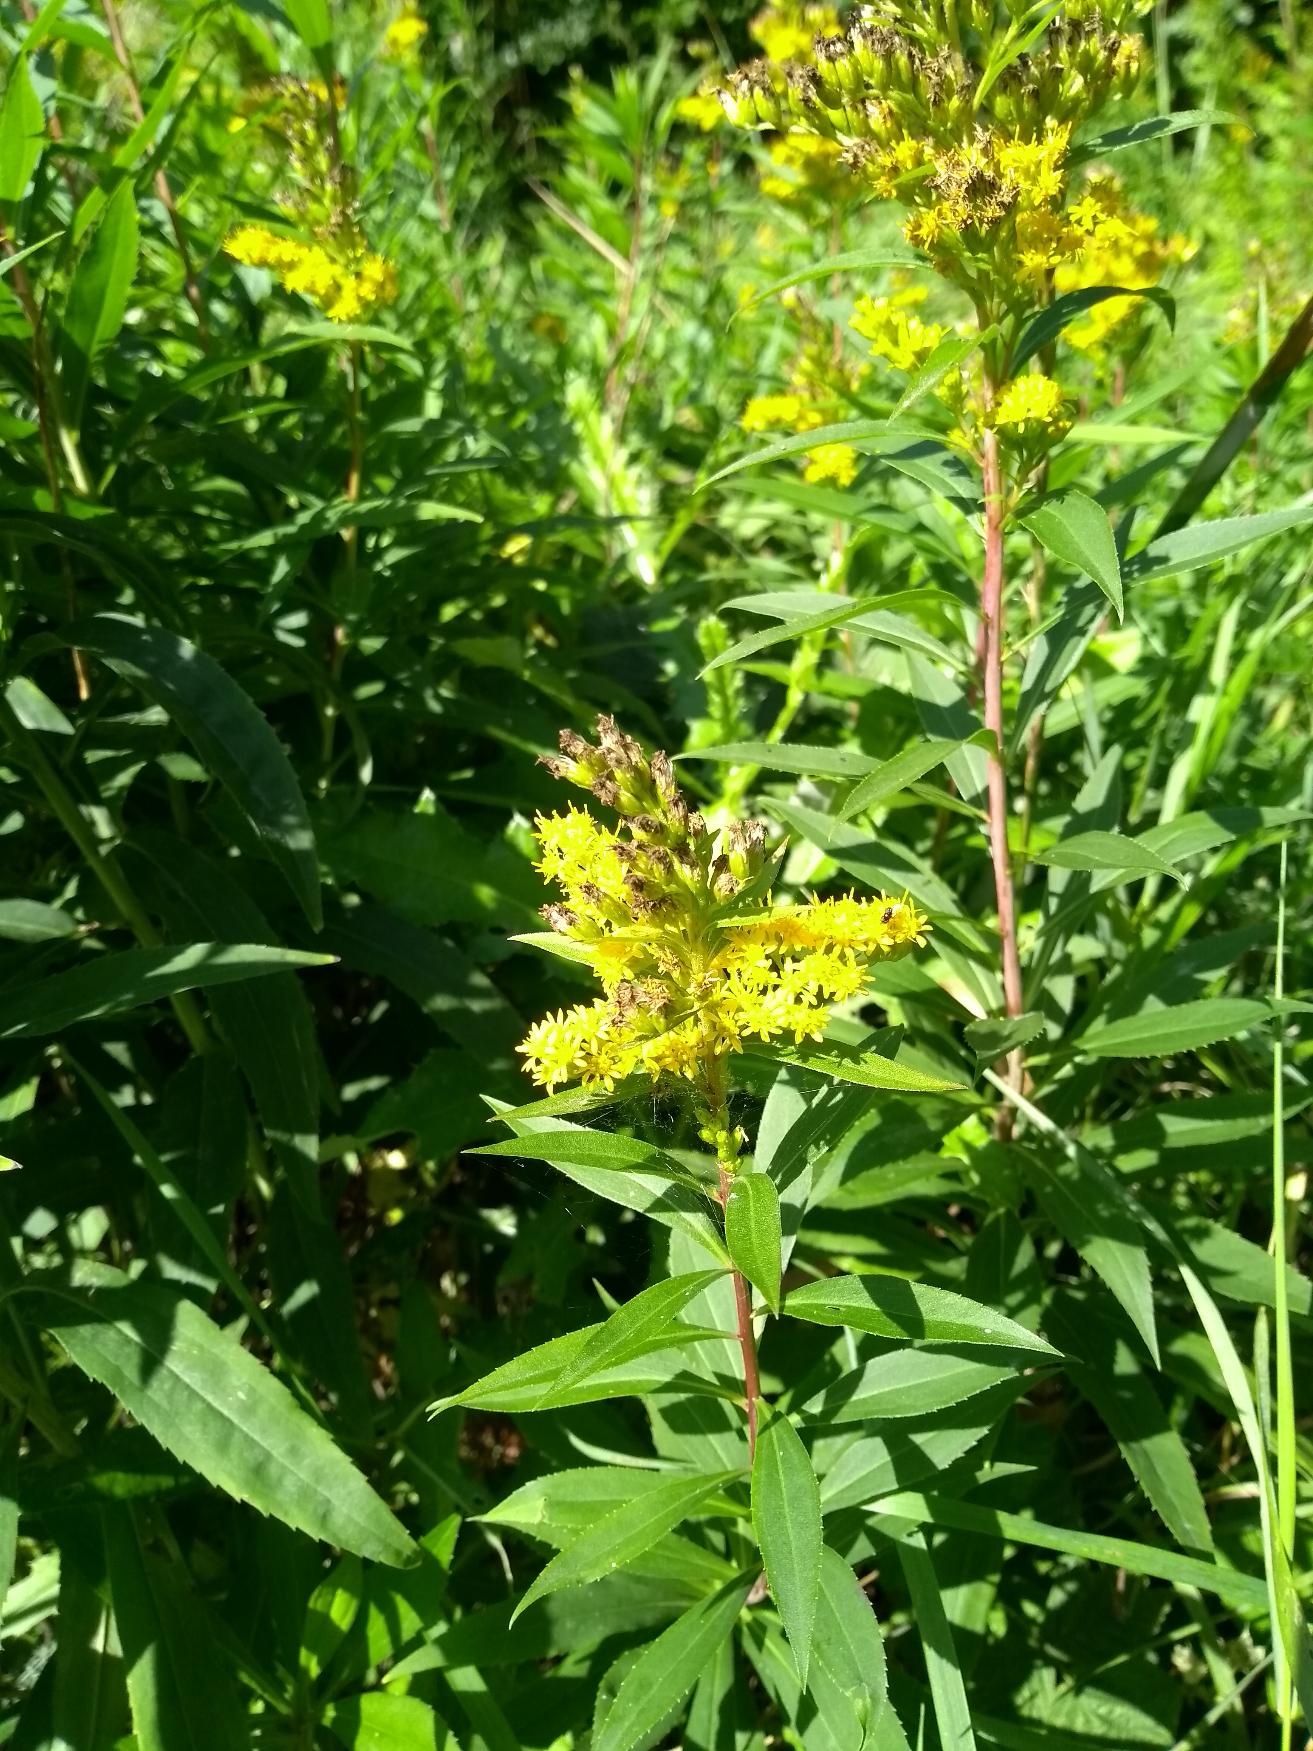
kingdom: Plantae
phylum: Tracheophyta
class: Magnoliopsida
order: Asterales
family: Asteraceae
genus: Solidago
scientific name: Solidago gigantea
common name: Sildig gyldenris
